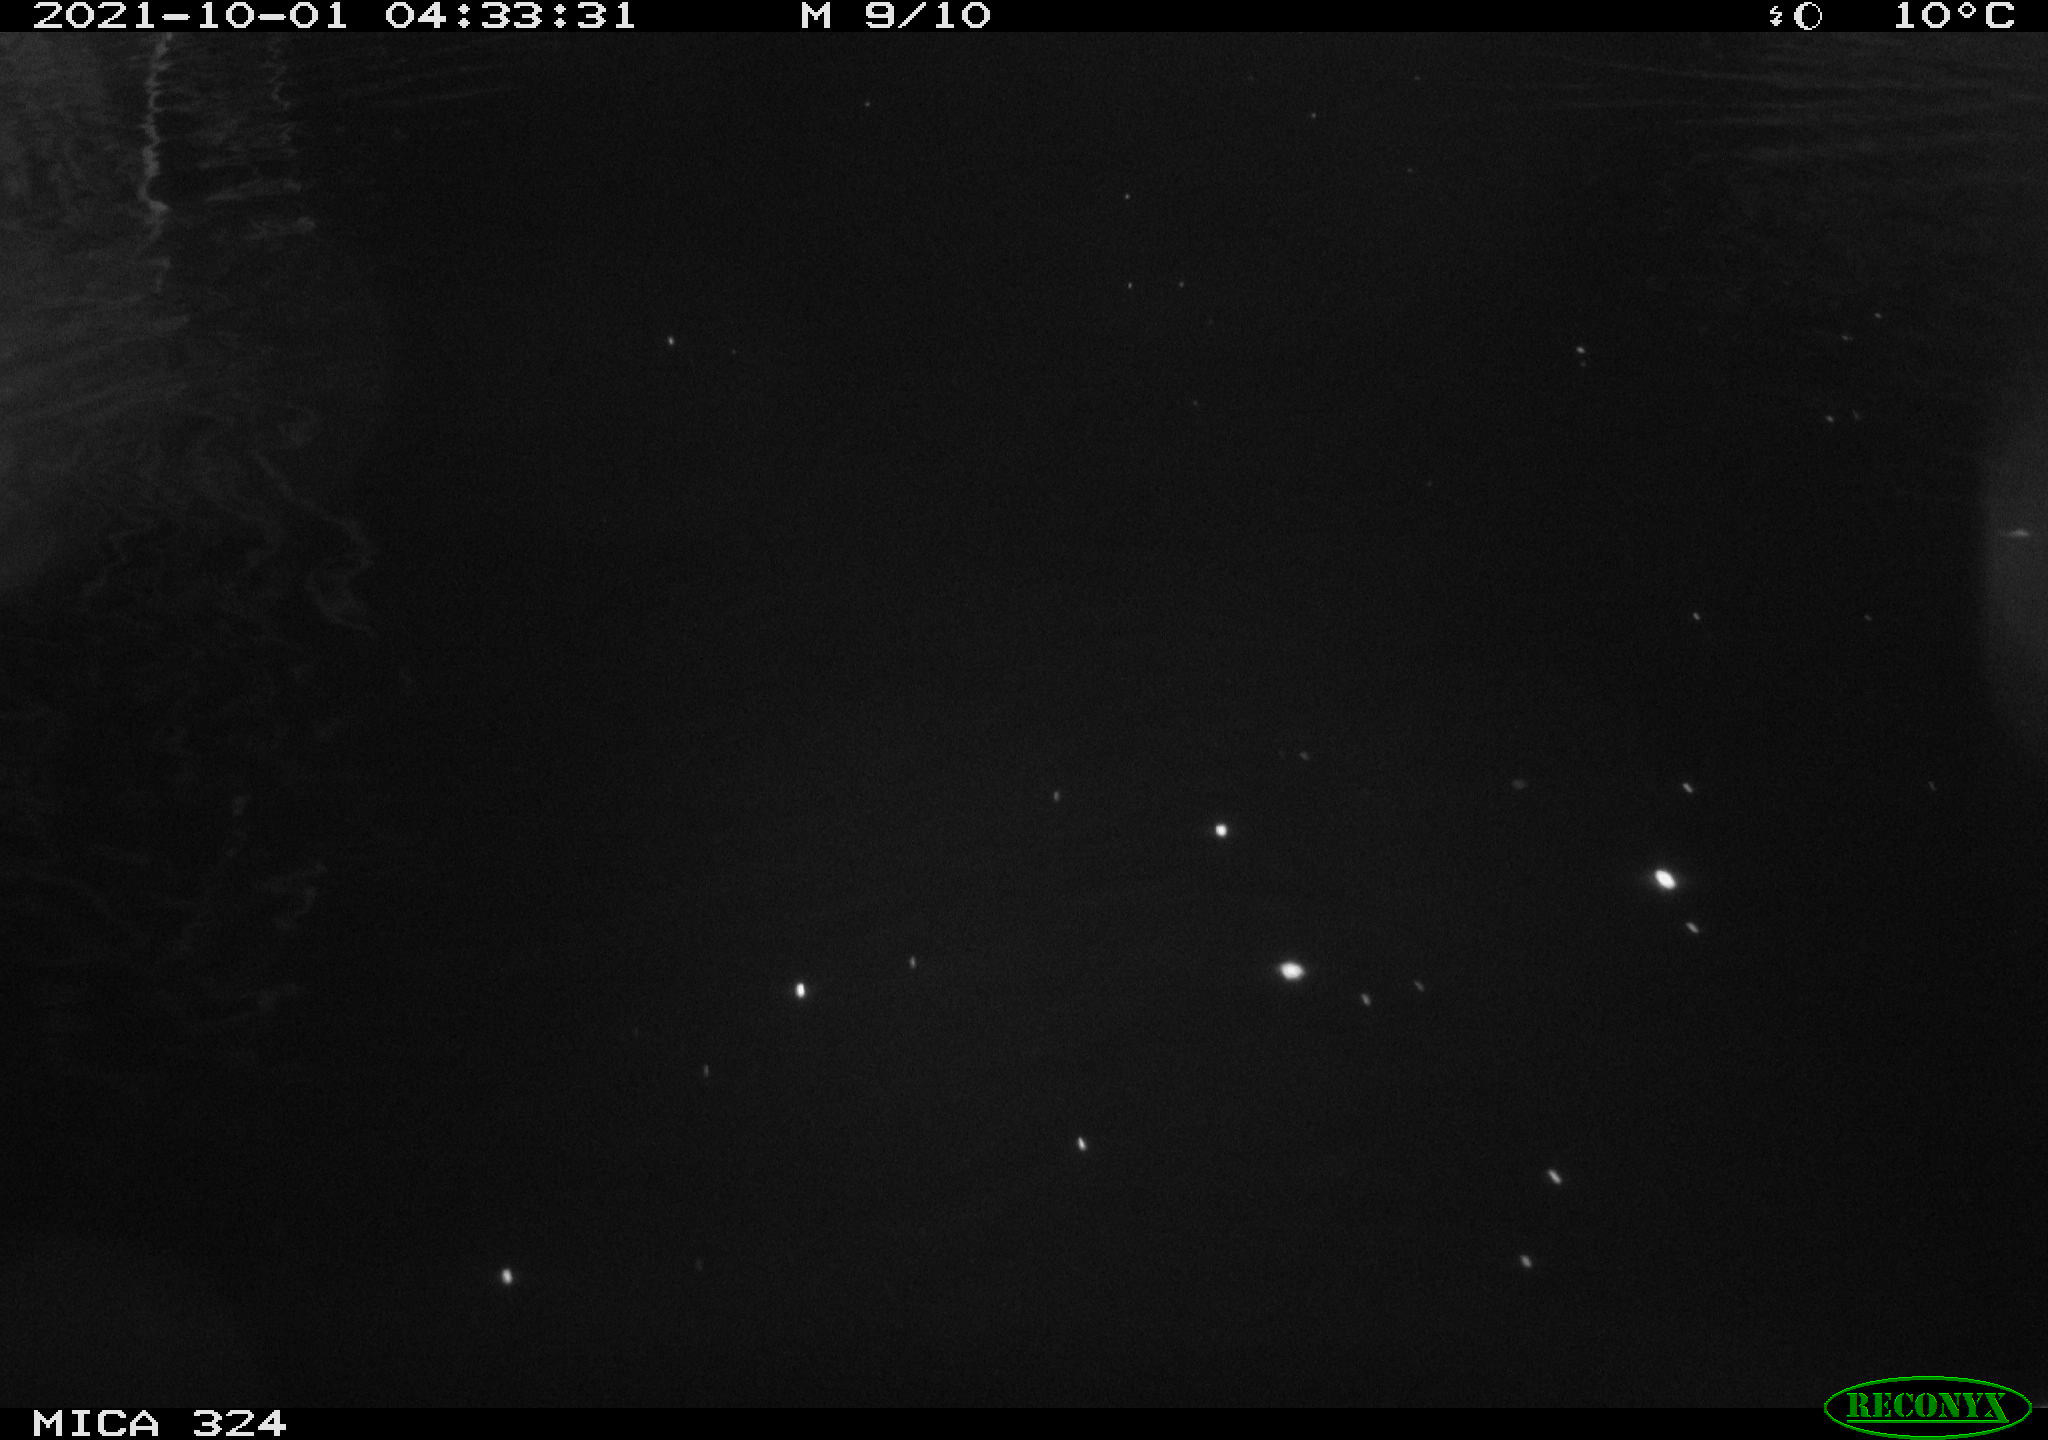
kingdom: Animalia
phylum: Chordata
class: Mammalia
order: Rodentia
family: Cricetidae
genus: Ondatra
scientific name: Ondatra zibethicus
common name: Muskrat
